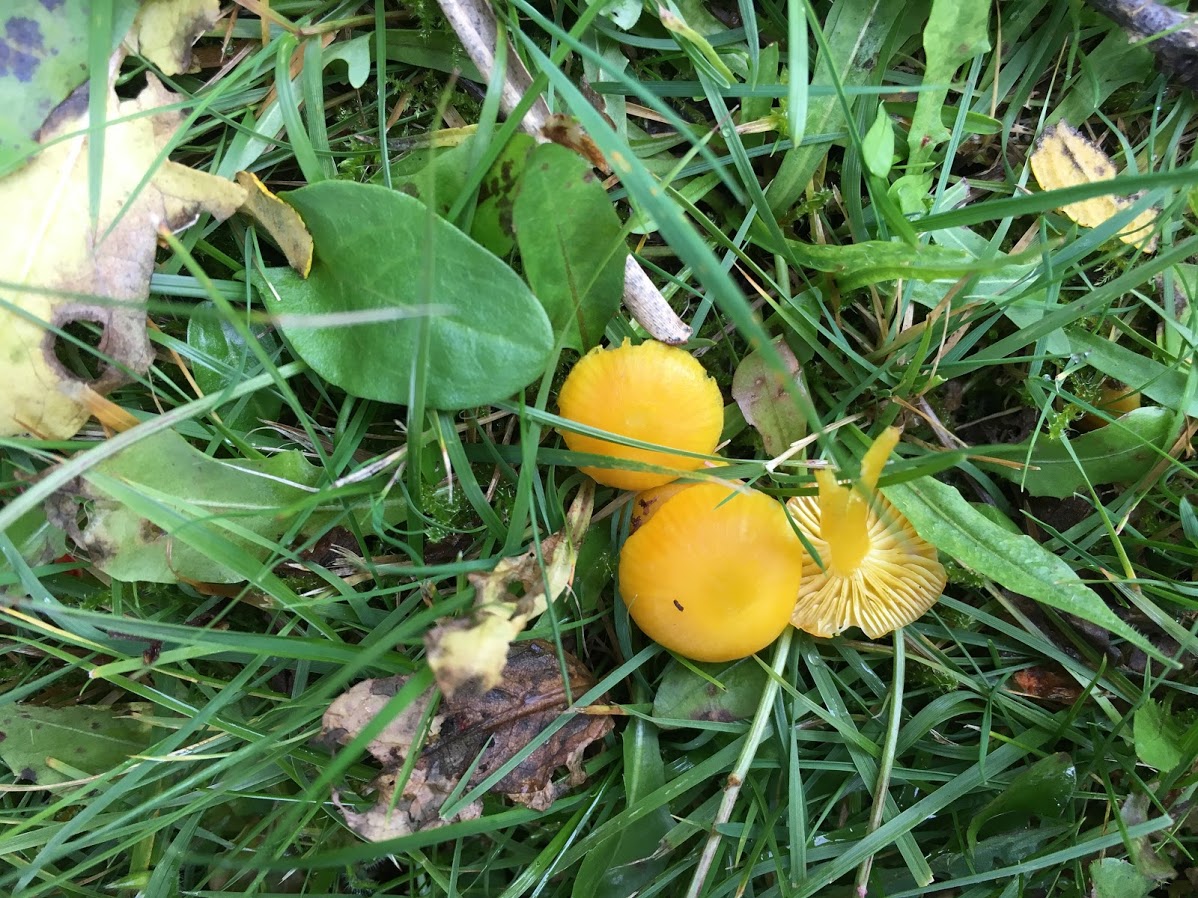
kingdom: Fungi
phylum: Basidiomycota
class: Agaricomycetes
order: Agaricales
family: Hygrophoraceae
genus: Hygrocybe
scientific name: Hygrocybe ceracea
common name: voksgul vokshat
